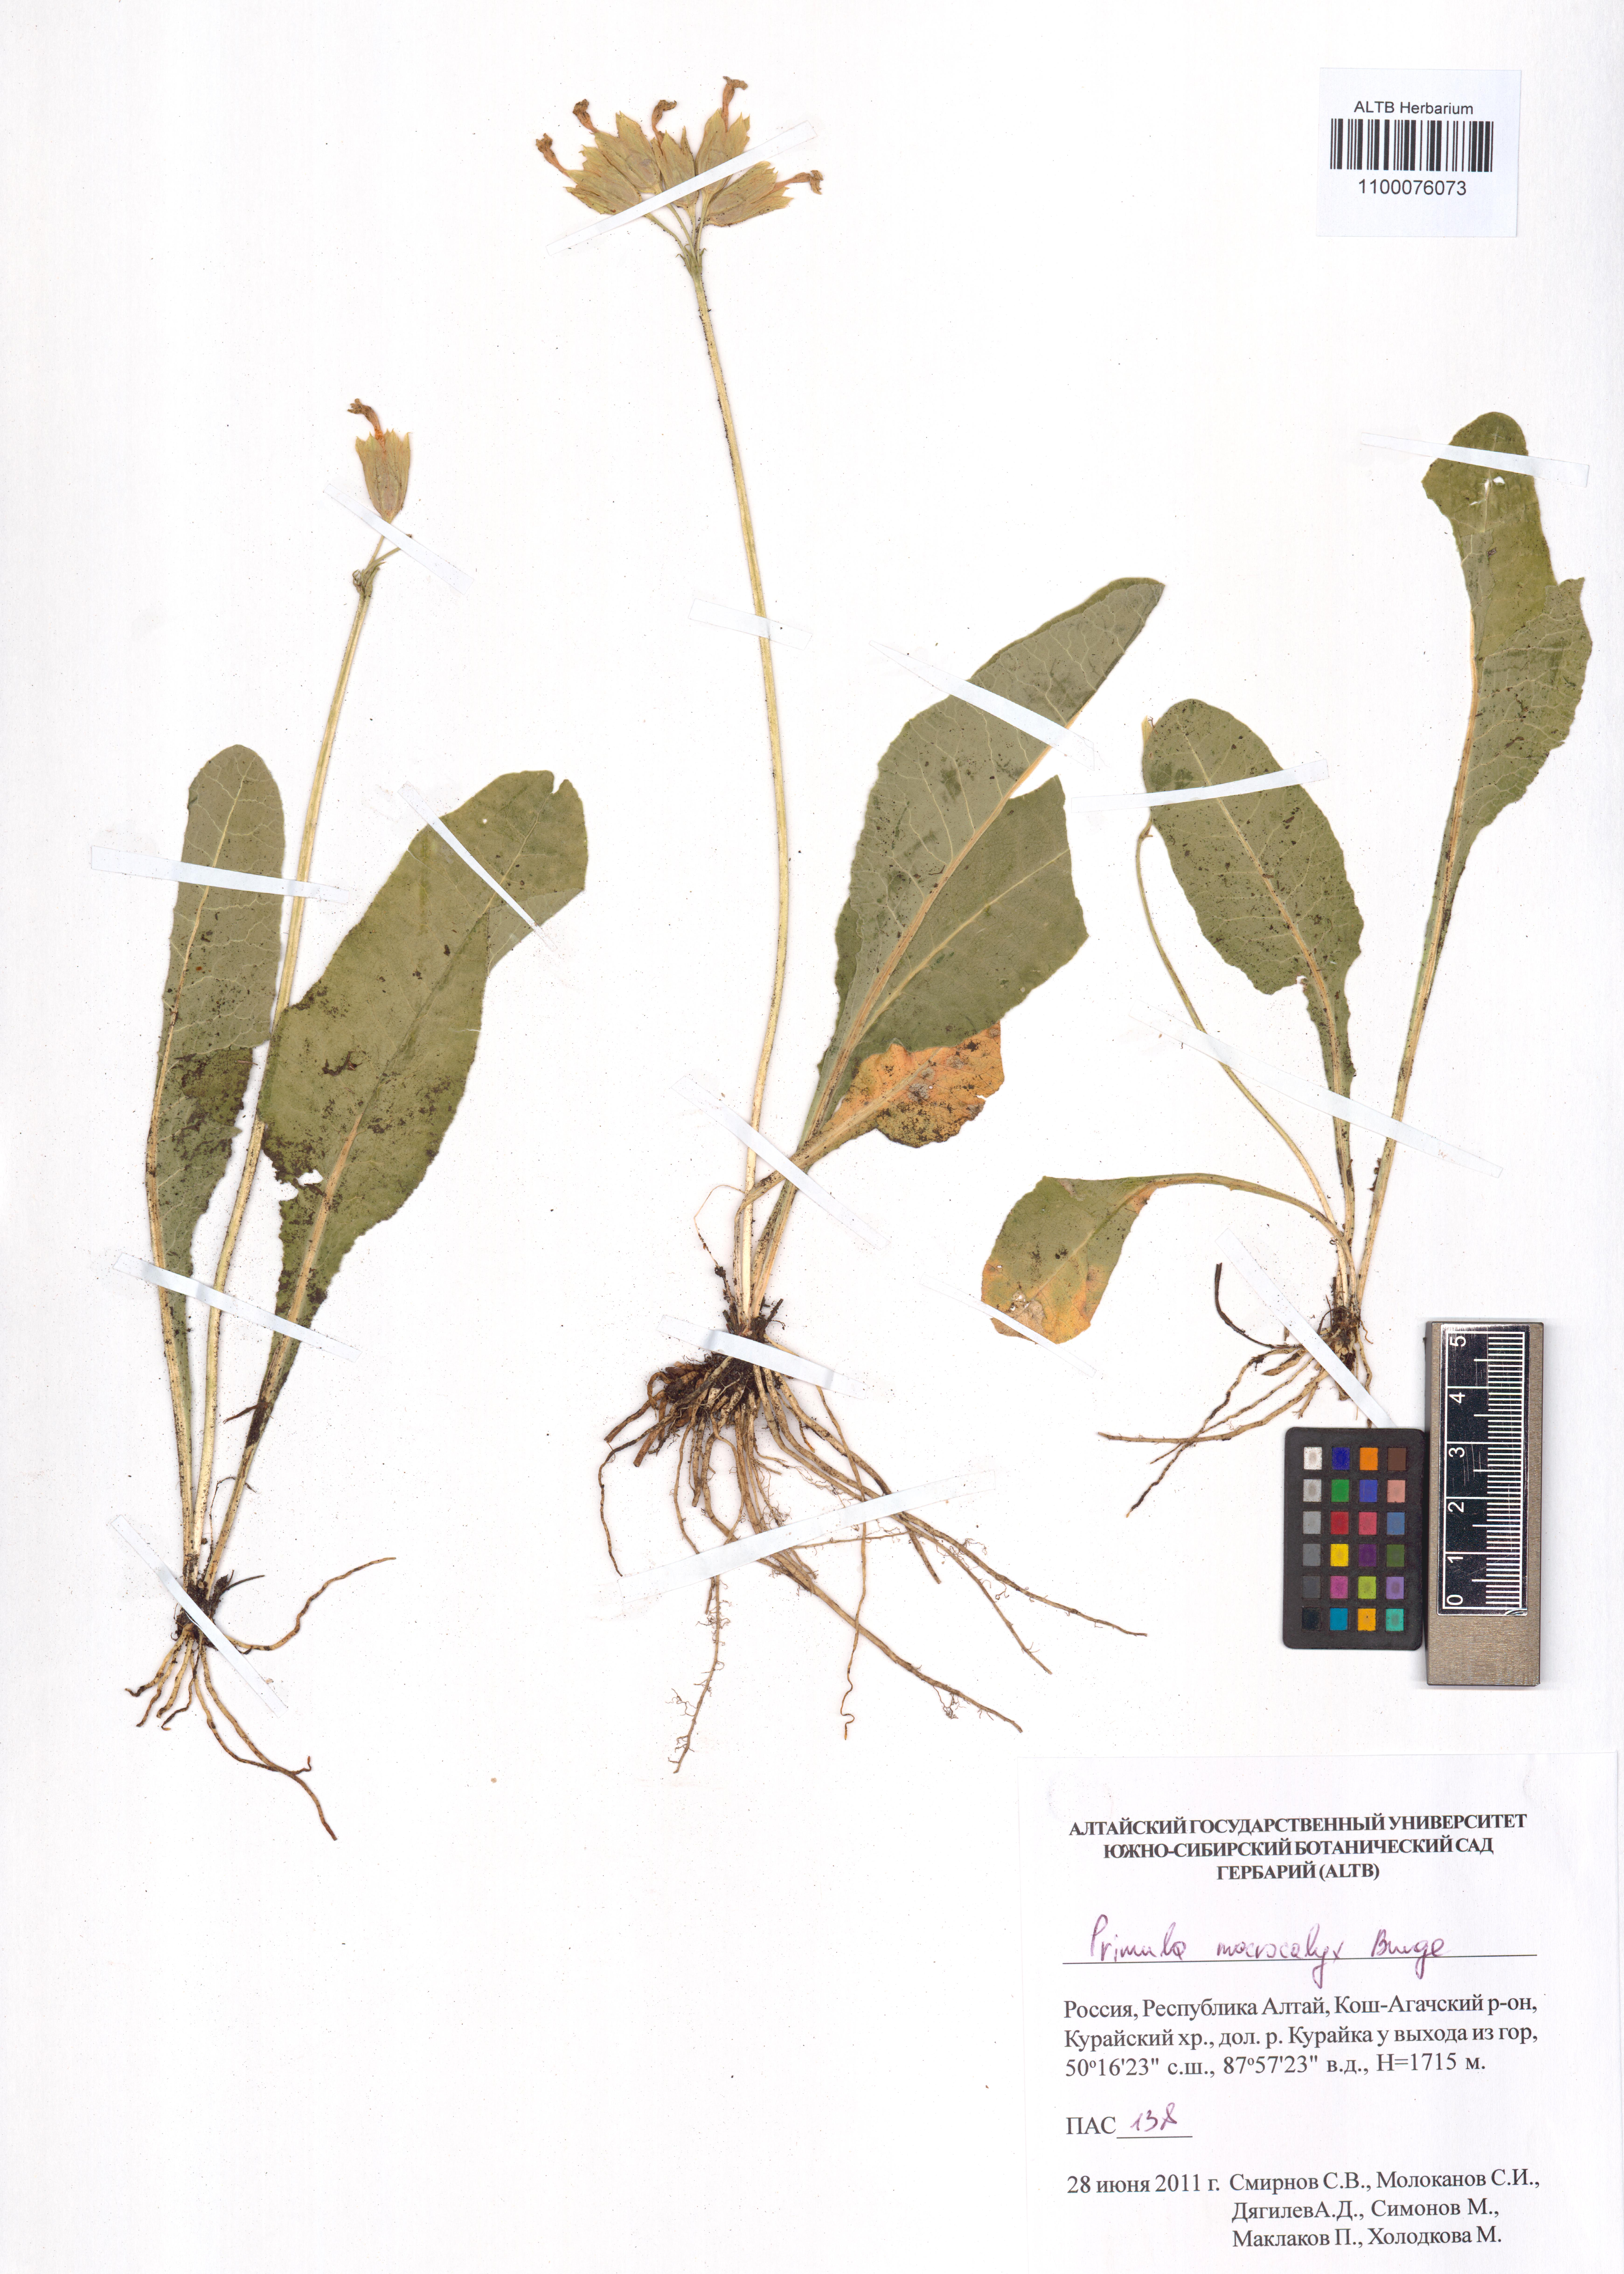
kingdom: Plantae
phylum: Tracheophyta
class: Magnoliopsida
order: Ericales
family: Primulaceae
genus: Primula
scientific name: Primula veris
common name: Cowslip
